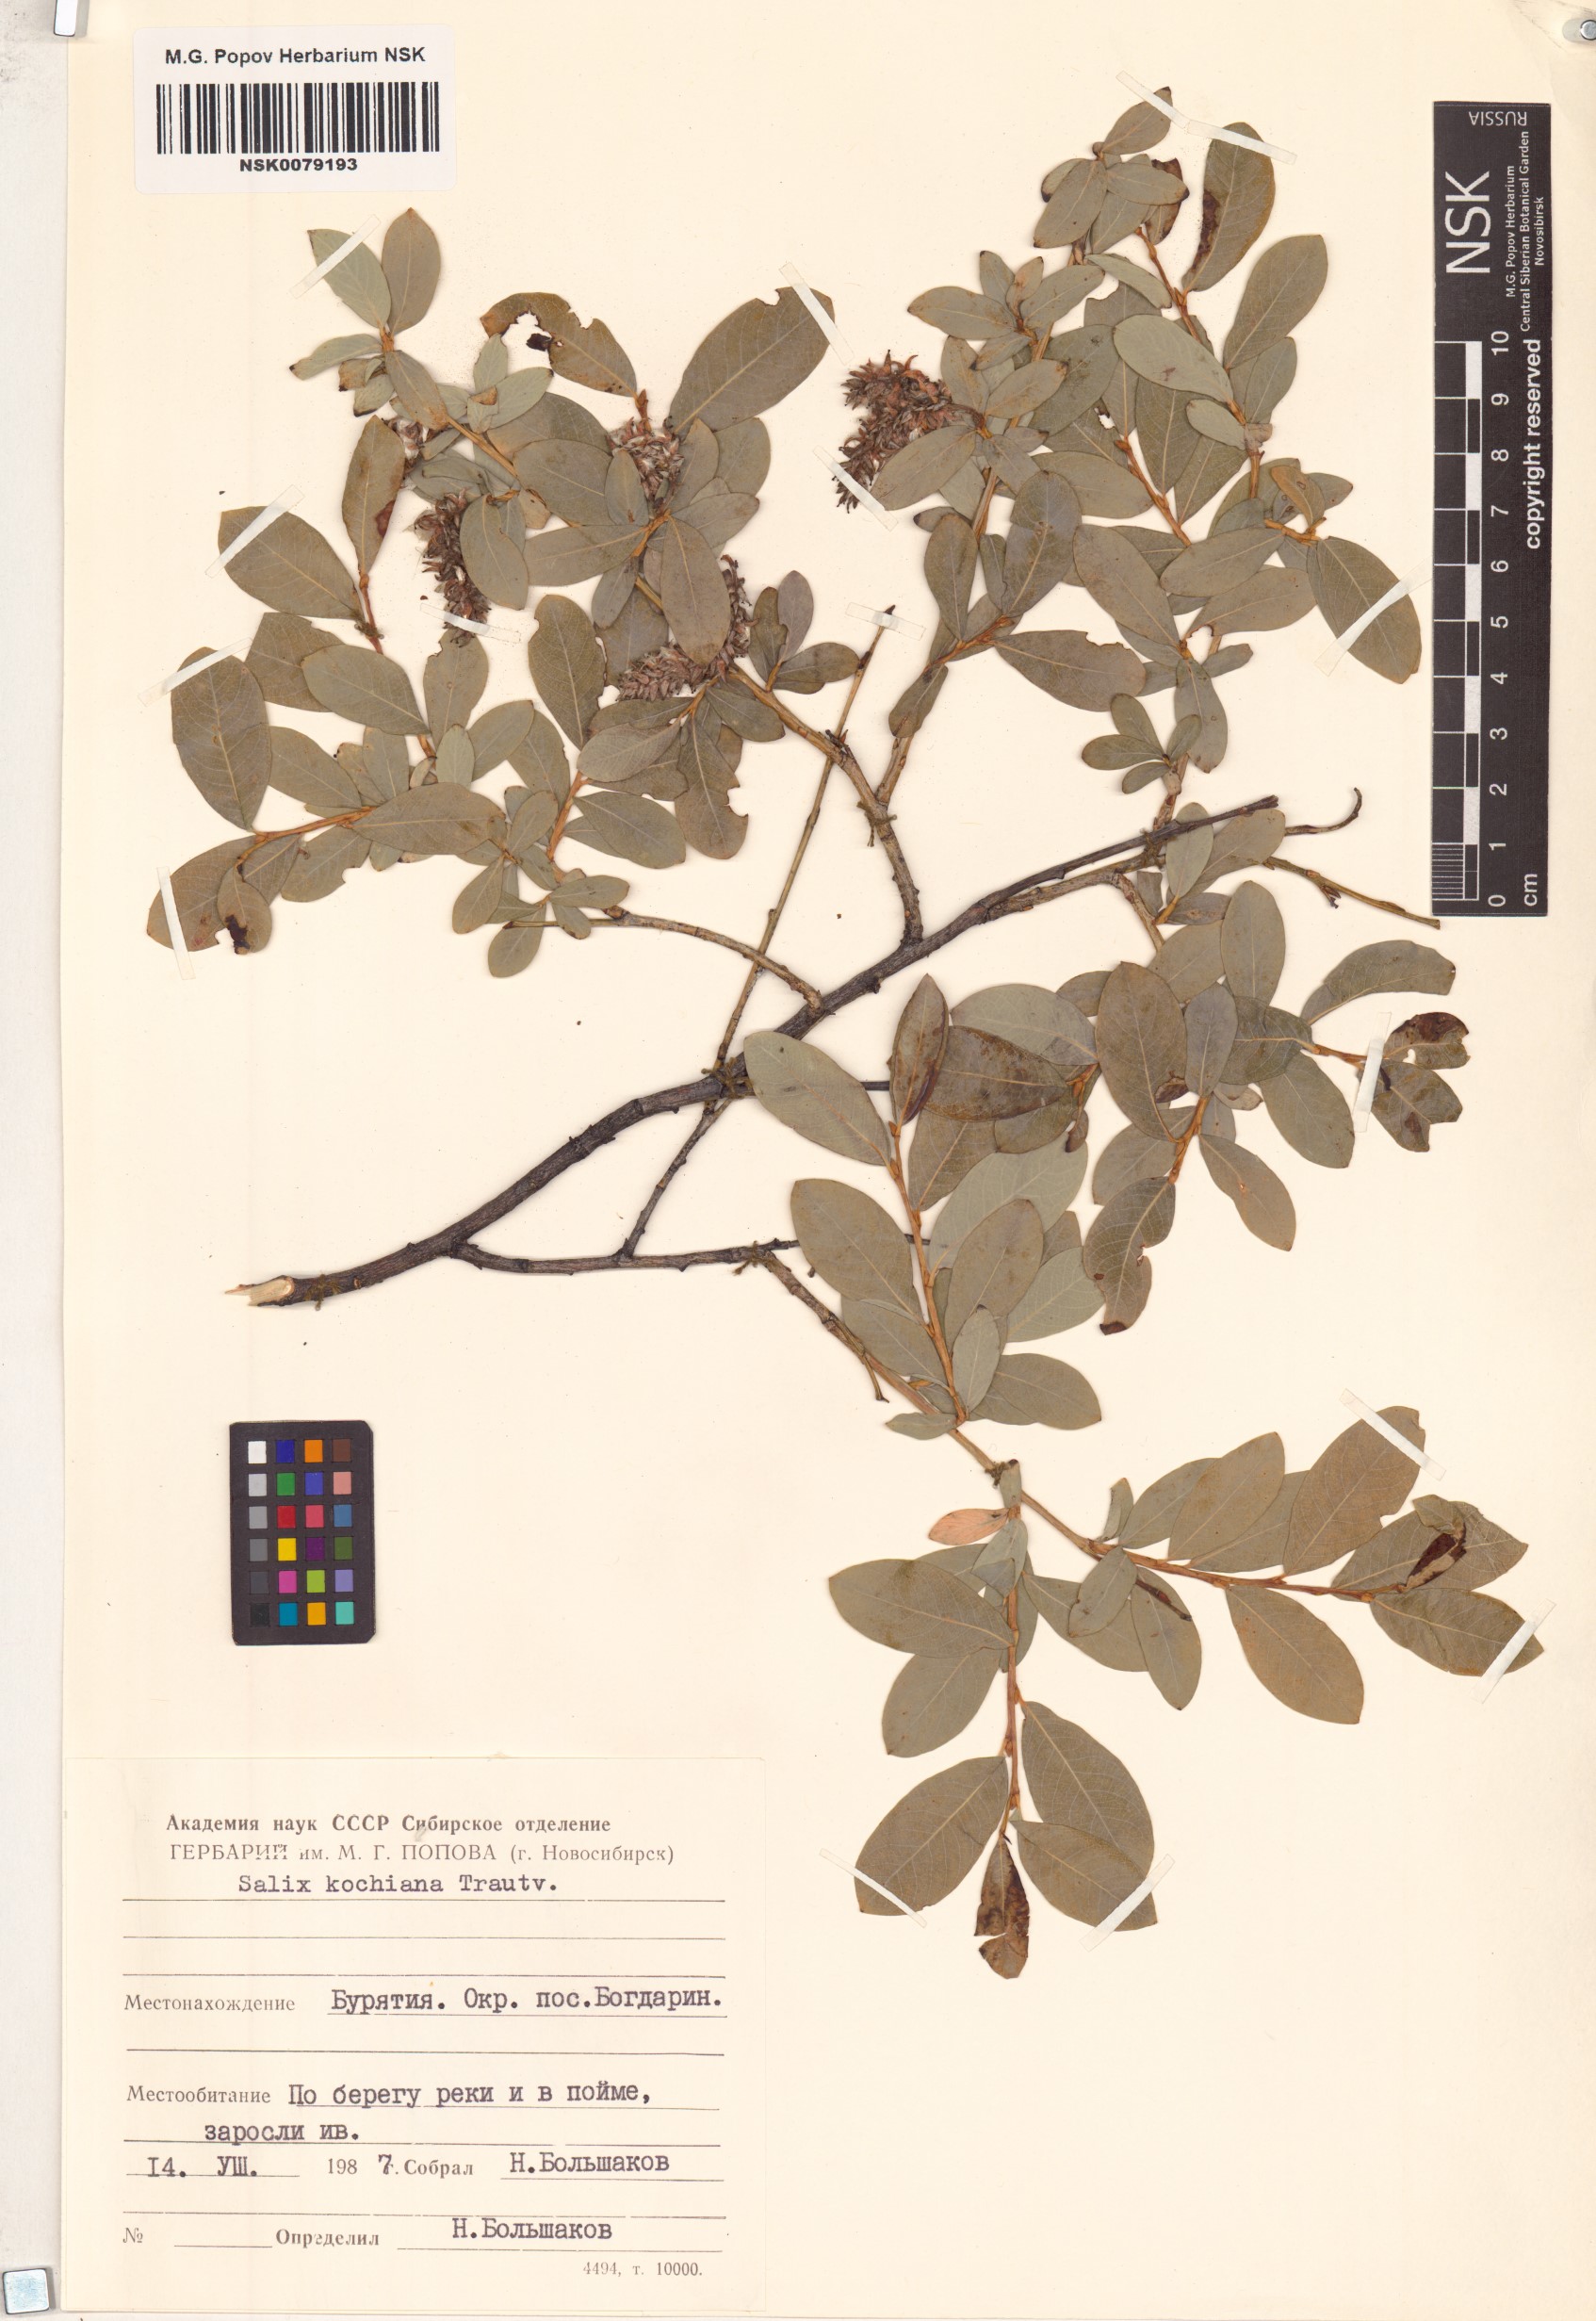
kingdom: Plantae
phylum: Tracheophyta
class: Magnoliopsida
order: Malpighiales
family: Salicaceae
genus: Salix
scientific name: Salix kochiana
